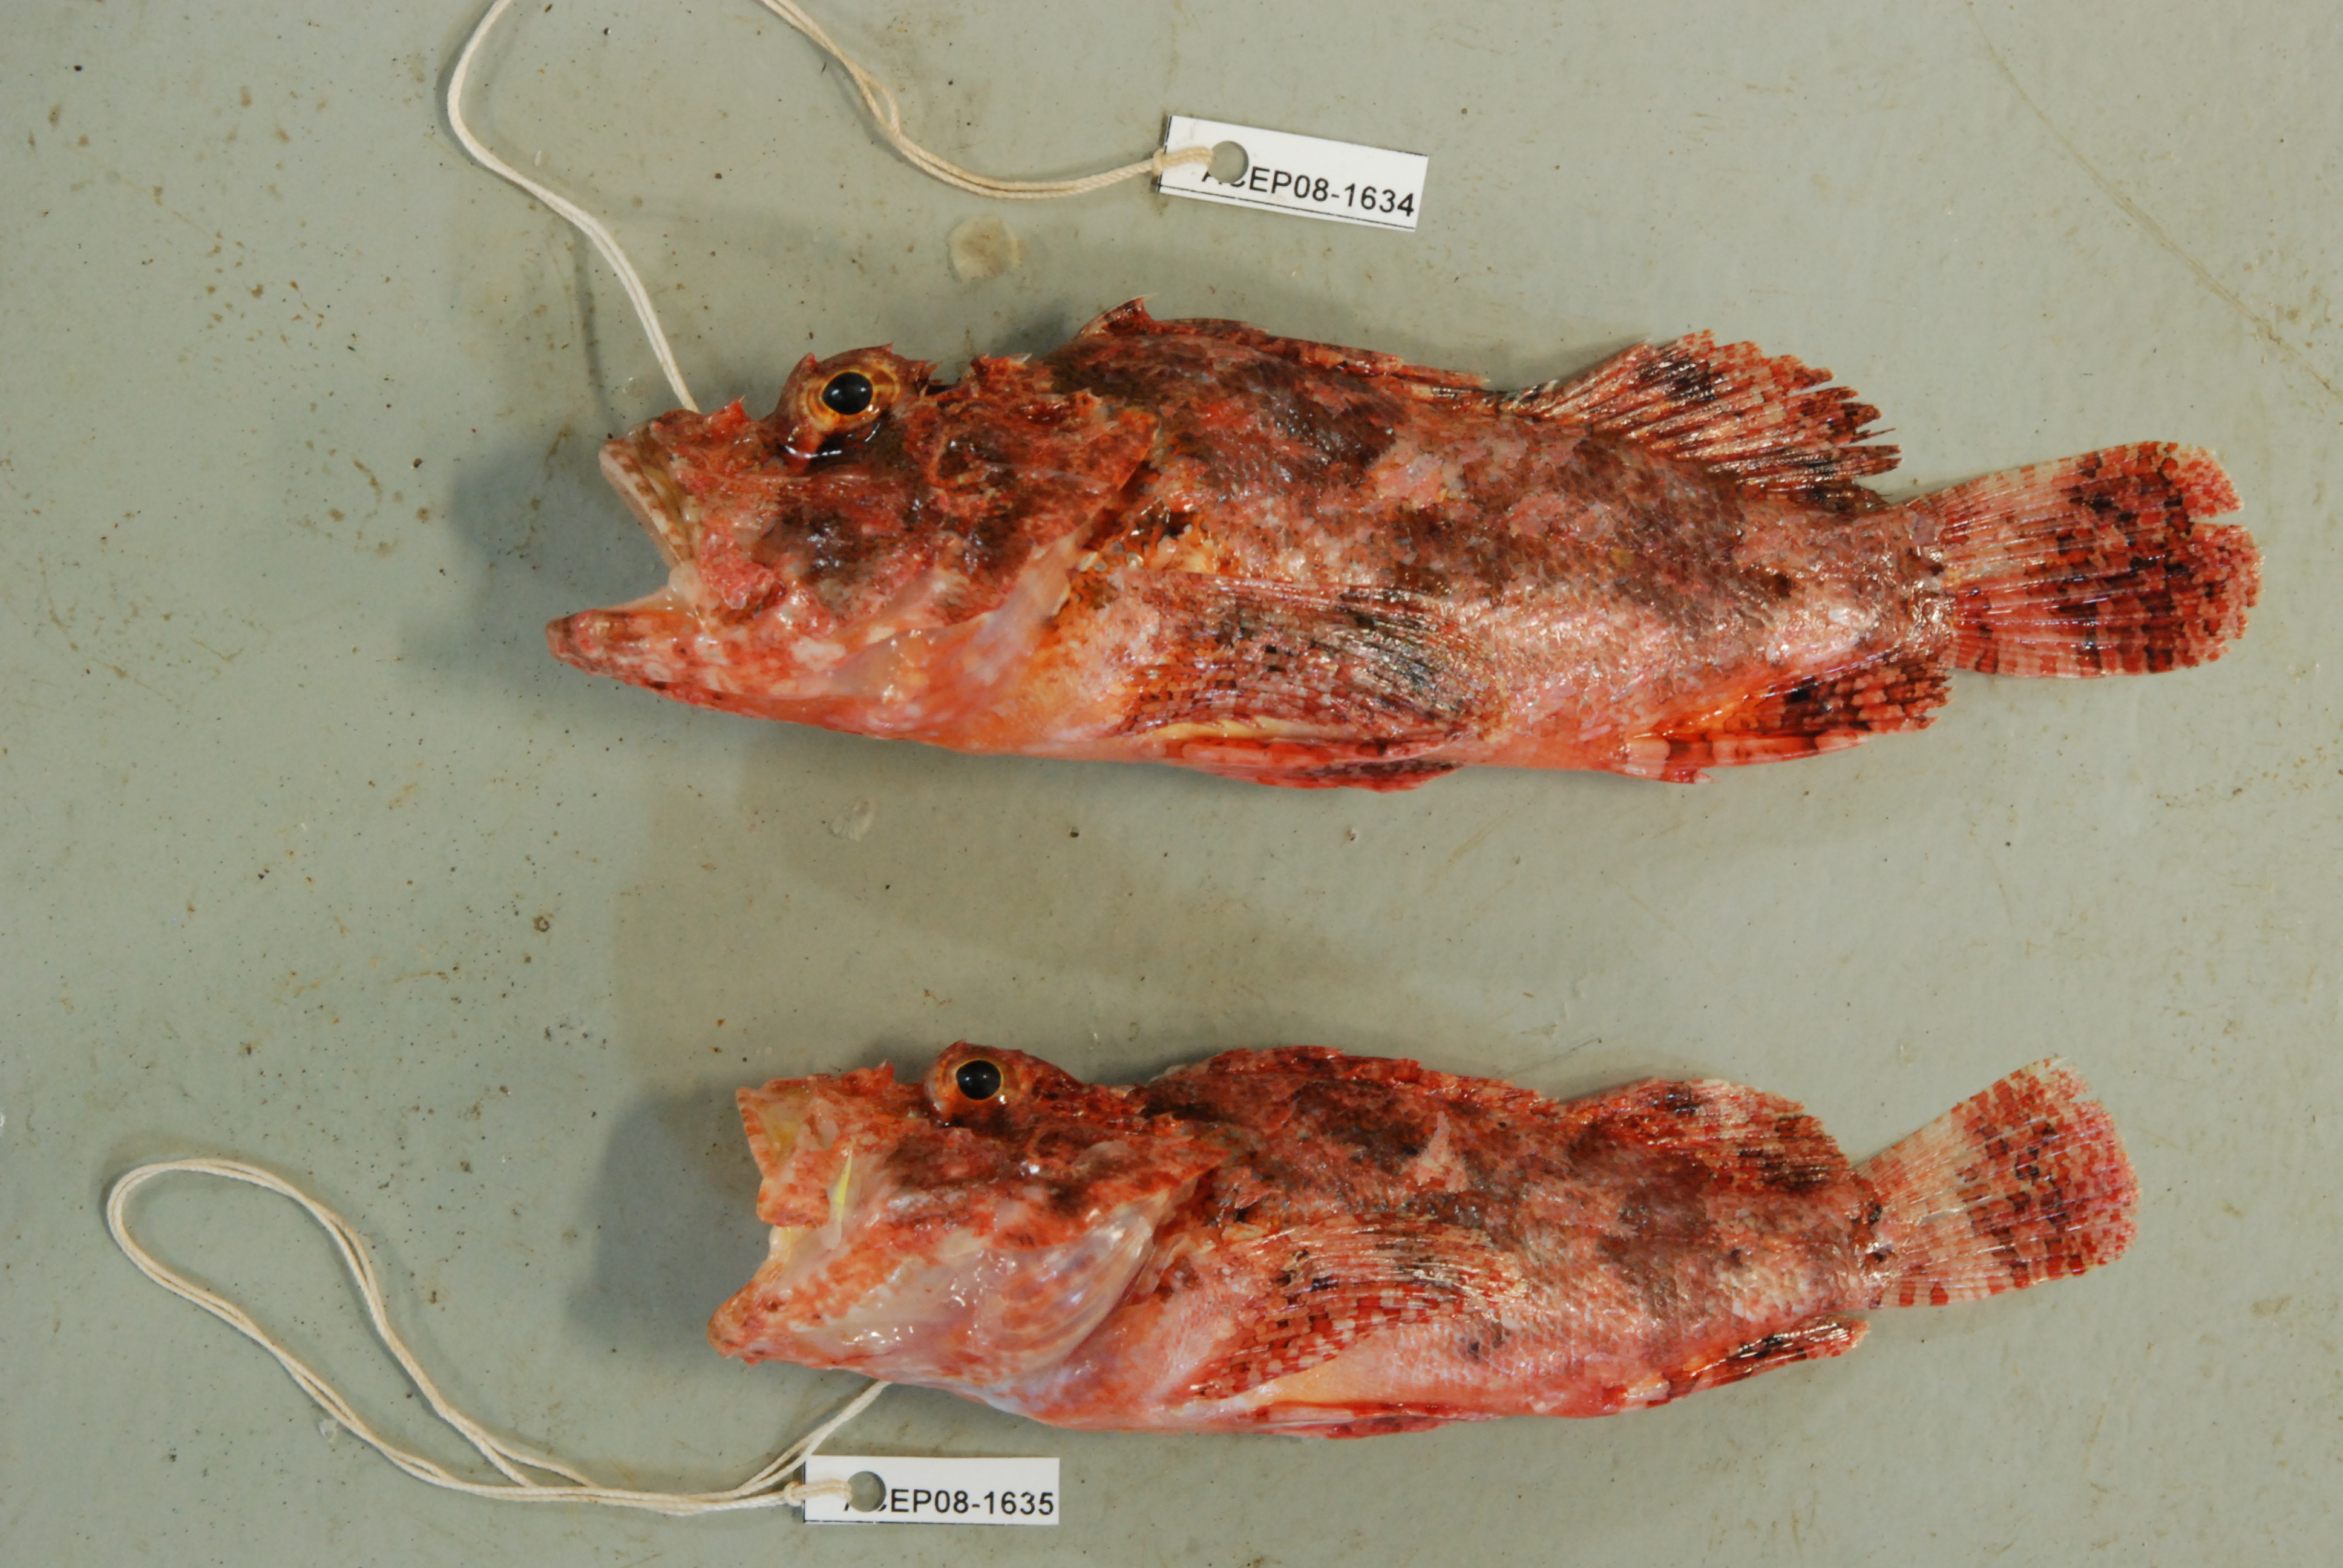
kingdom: Animalia
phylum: Chordata
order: Scorpaeniformes
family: Scorpaenidae
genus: Scorpaenopsis
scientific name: Scorpaenopsis venosa
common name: Raggy scorpionfish
